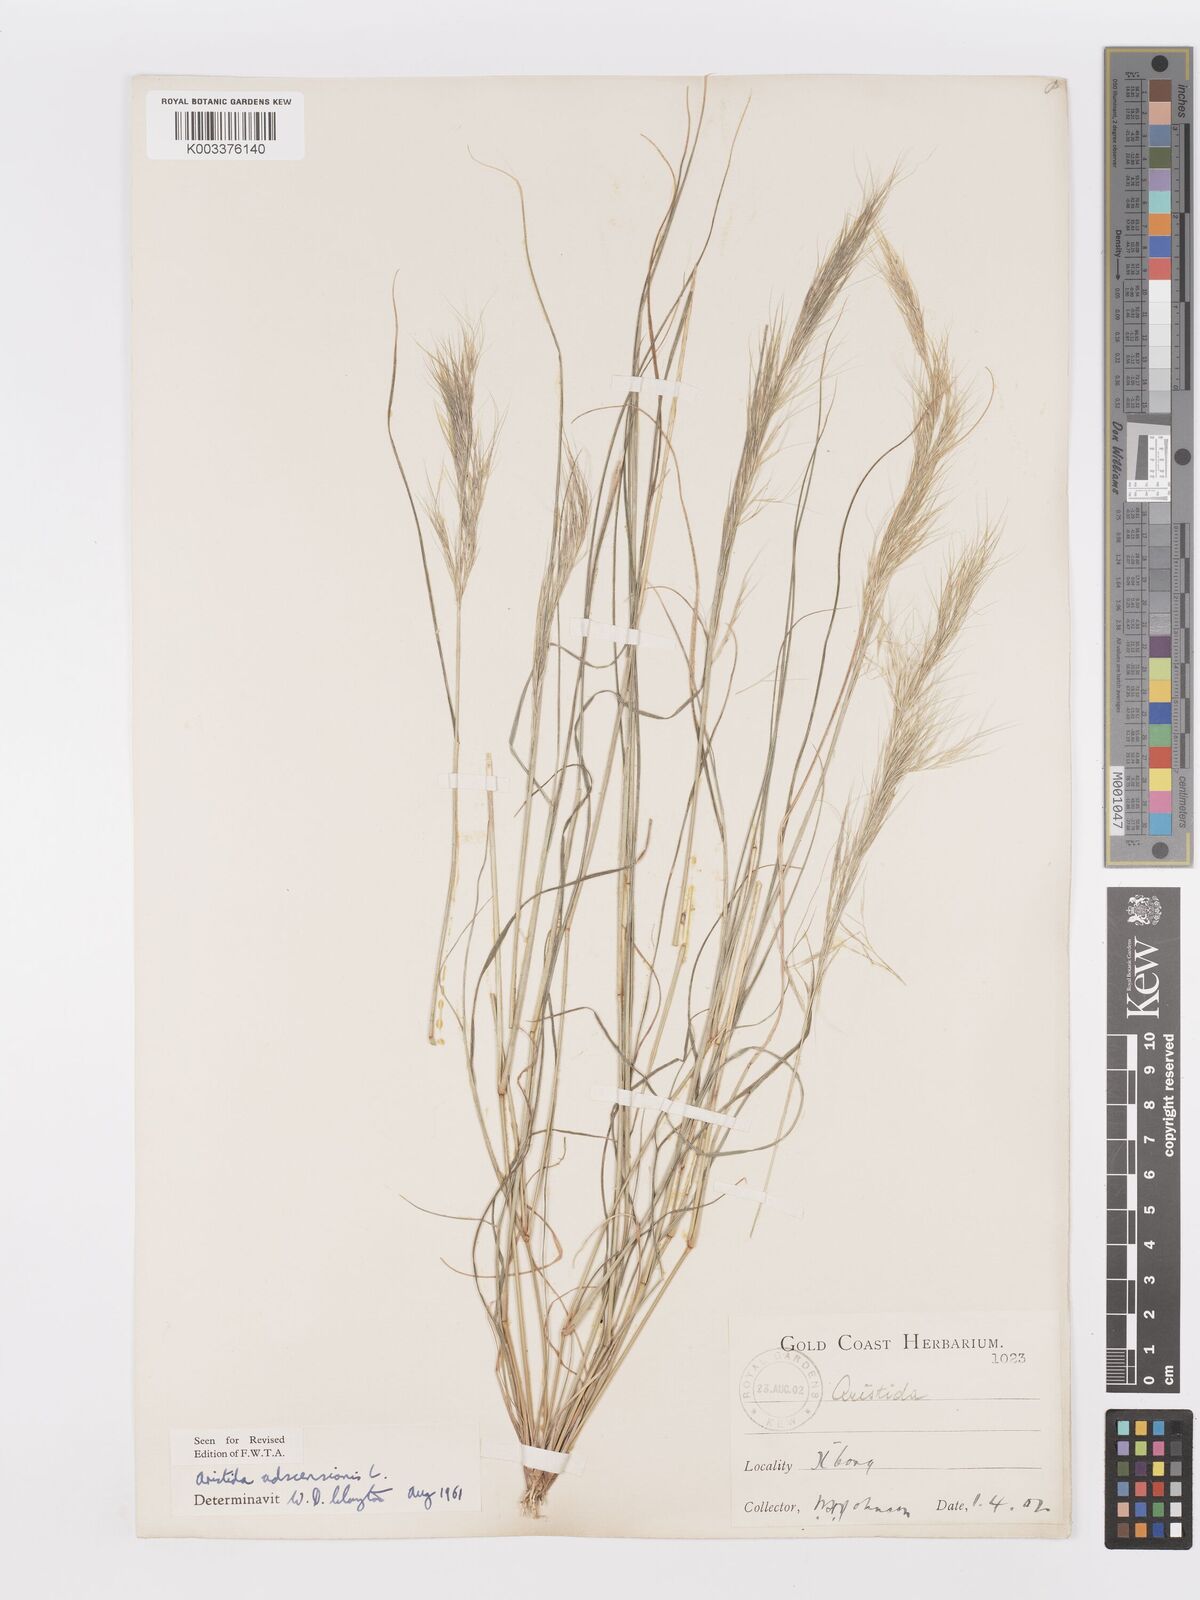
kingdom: Plantae
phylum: Tracheophyta
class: Liliopsida
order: Poales
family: Poaceae
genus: Aristida
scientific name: Aristida adscensionis
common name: Sixweeks threeawn
